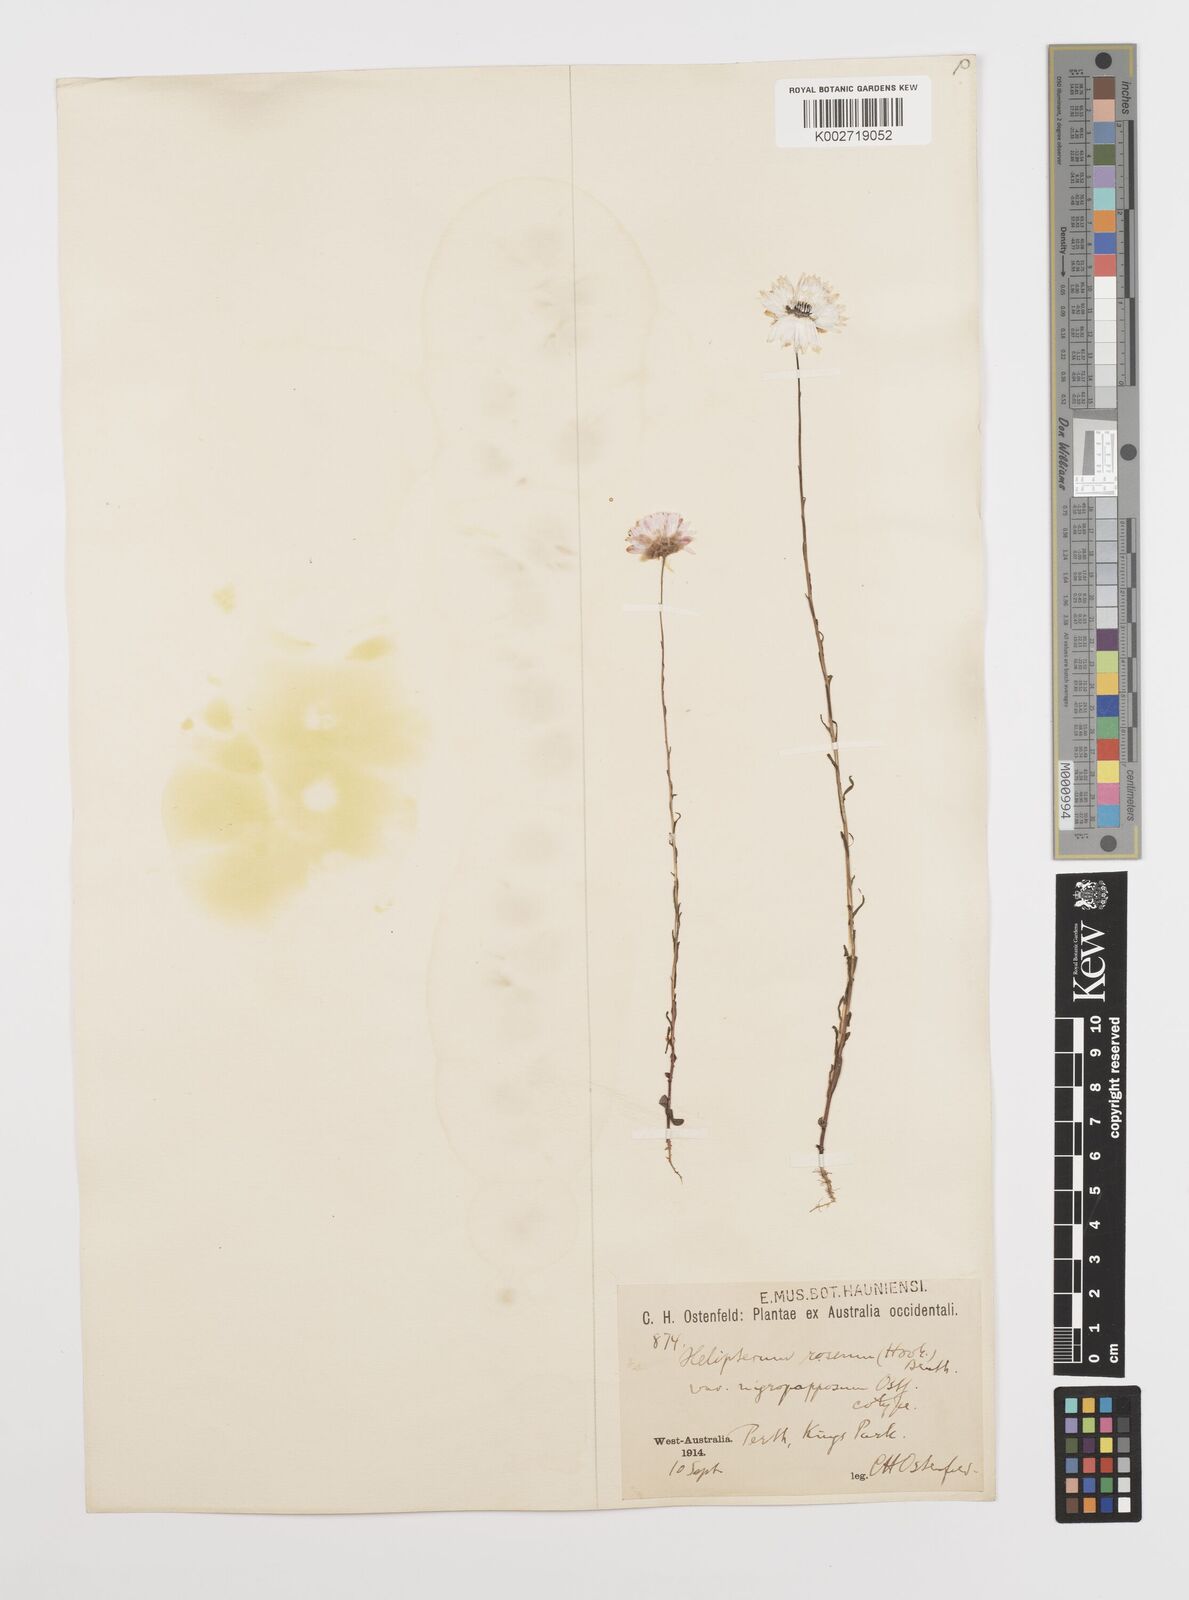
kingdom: Plantae
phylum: Tracheophyta
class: Magnoliopsida
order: Asterales
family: Asteraceae
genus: Rhodanthe
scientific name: Rhodanthe chlorocephala
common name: Rosy sunray
